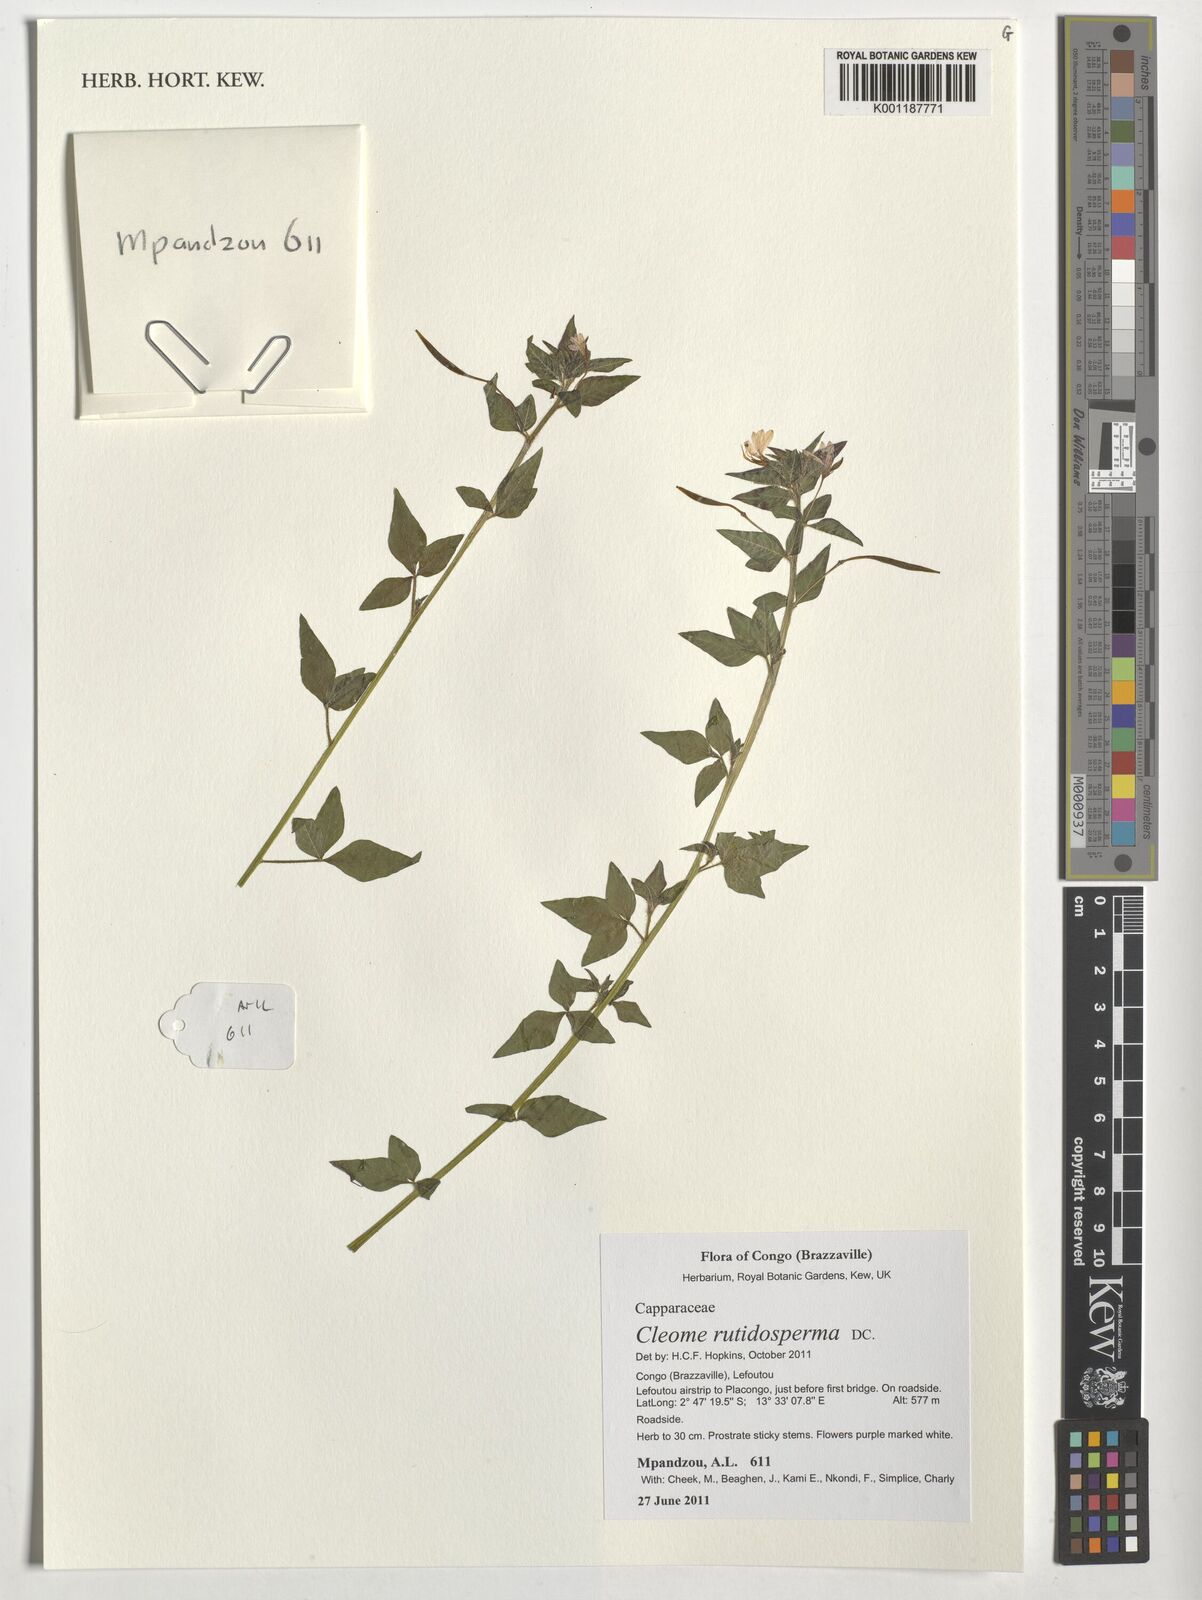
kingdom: Plantae
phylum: Tracheophyta
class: Magnoliopsida
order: Brassicales
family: Cleomaceae
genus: Sieruela
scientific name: Sieruela rutidosperma
